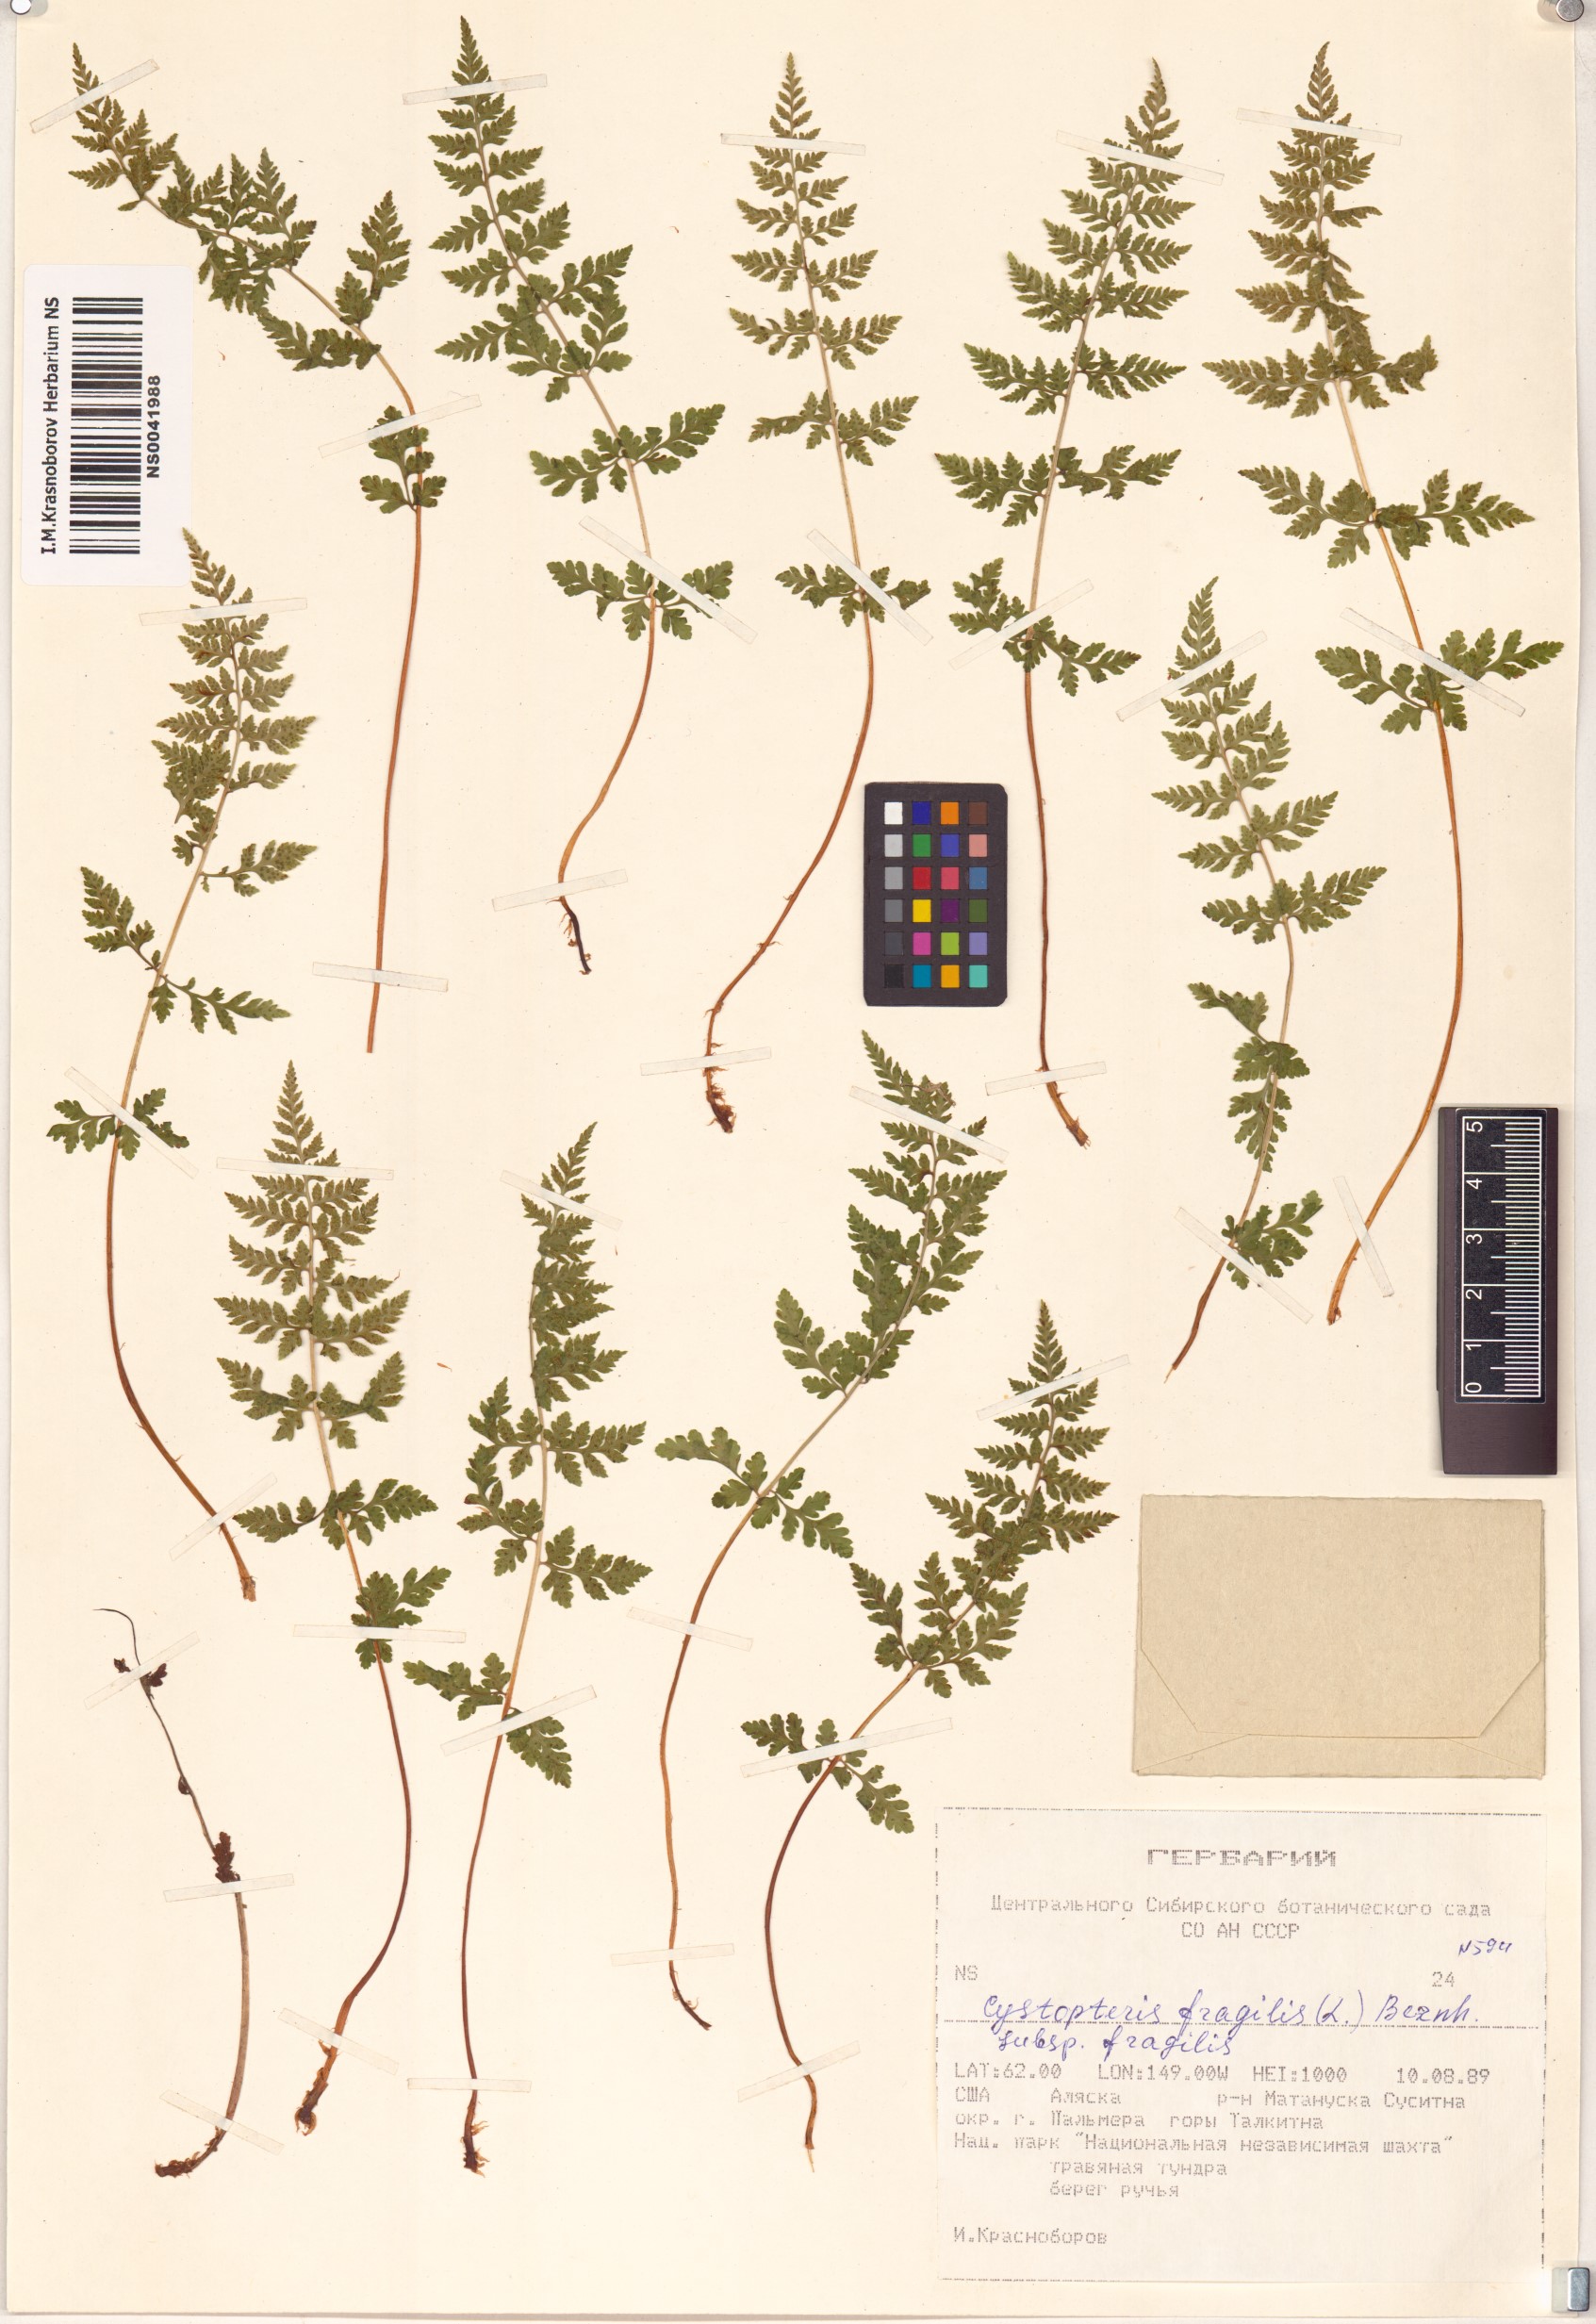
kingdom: Plantae
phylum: Tracheophyta
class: Polypodiopsida
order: Polypodiales
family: Cystopteridaceae
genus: Cystopteris
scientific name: Cystopteris fragilis
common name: Brittle bladder fern
